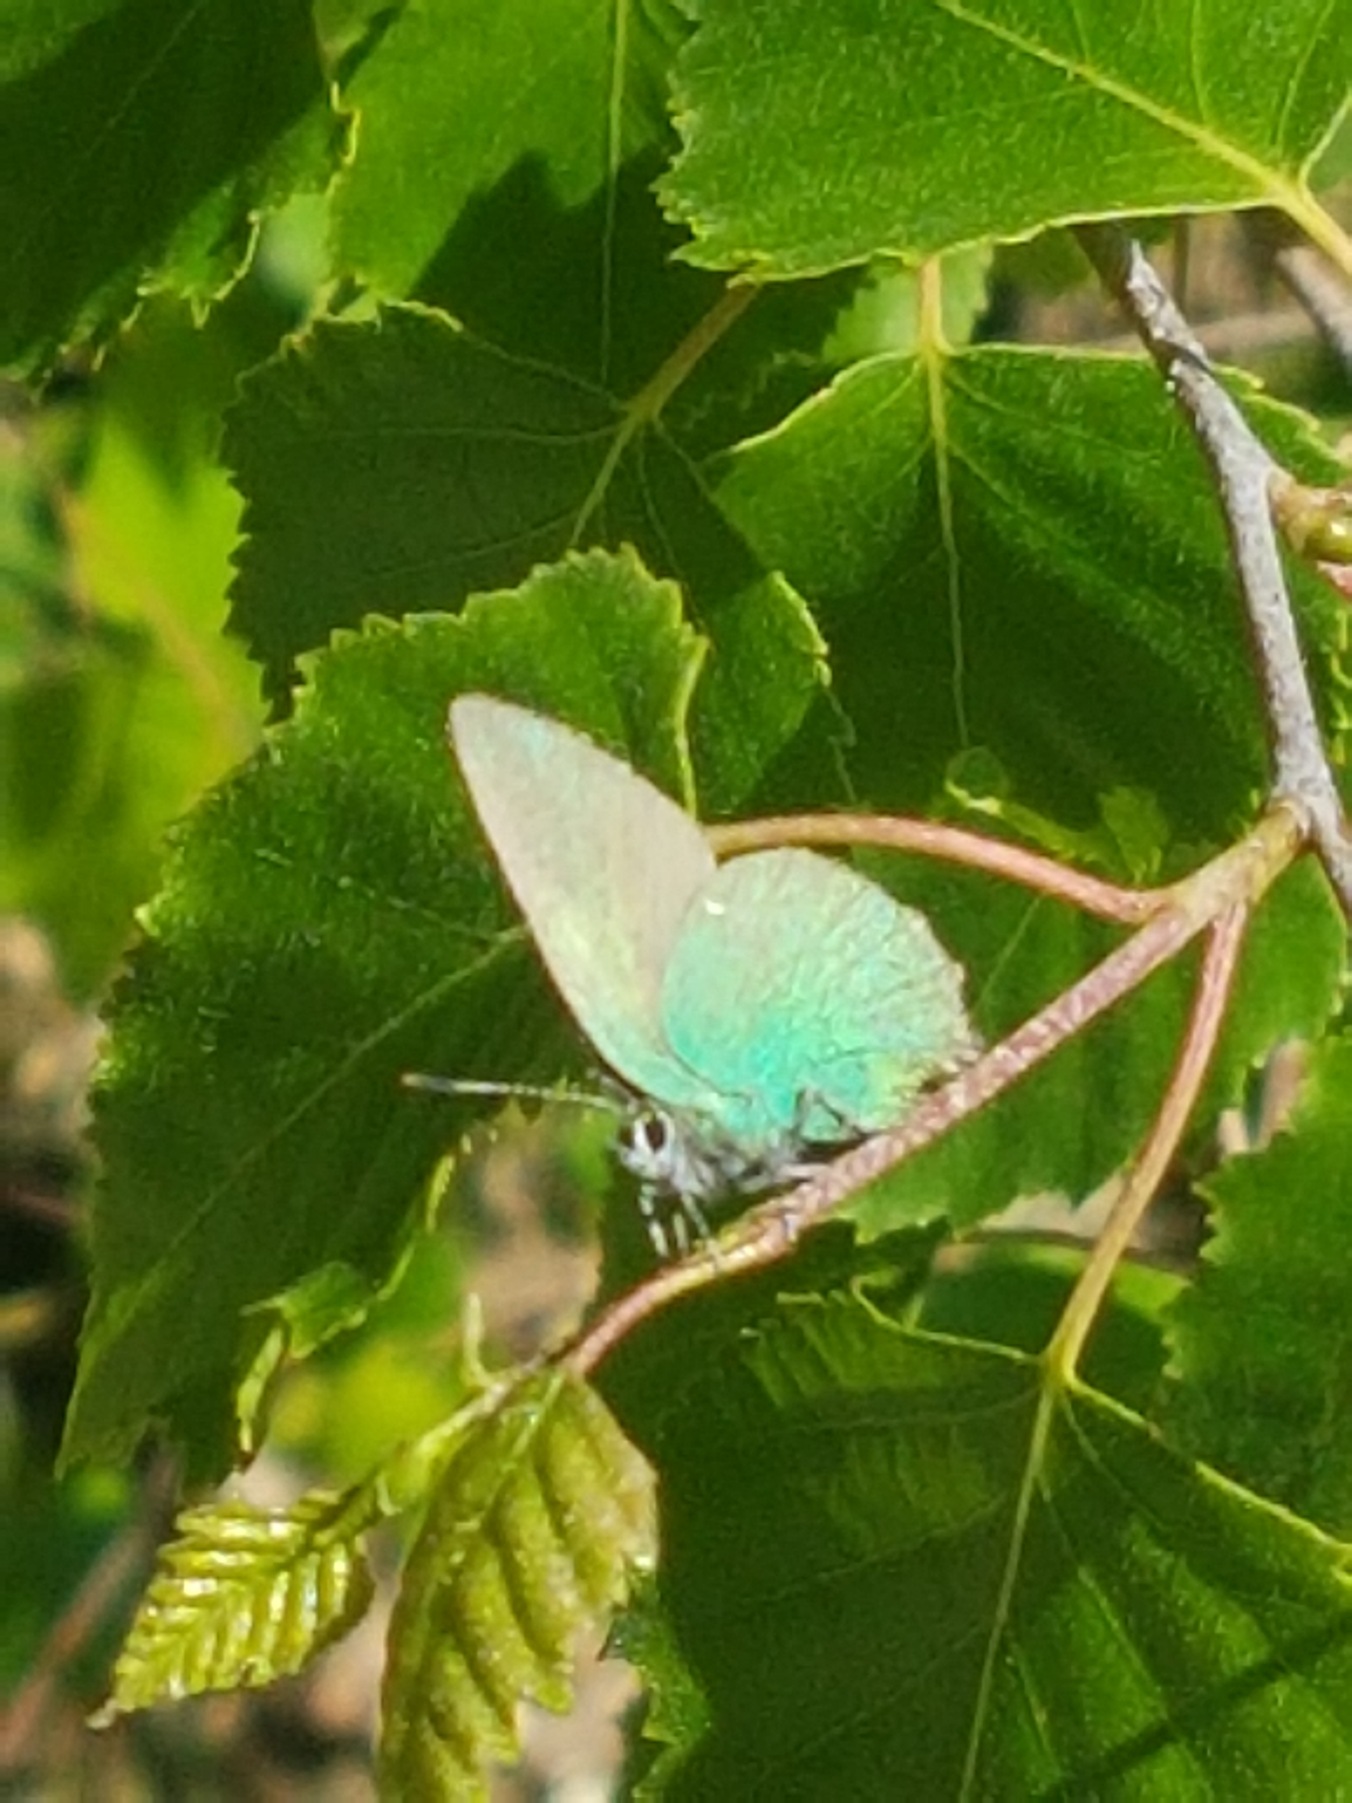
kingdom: Animalia
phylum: Arthropoda
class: Insecta
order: Lepidoptera
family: Lycaenidae
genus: Callophrys
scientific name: Callophrys rubi
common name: Grøn busksommerfugl
